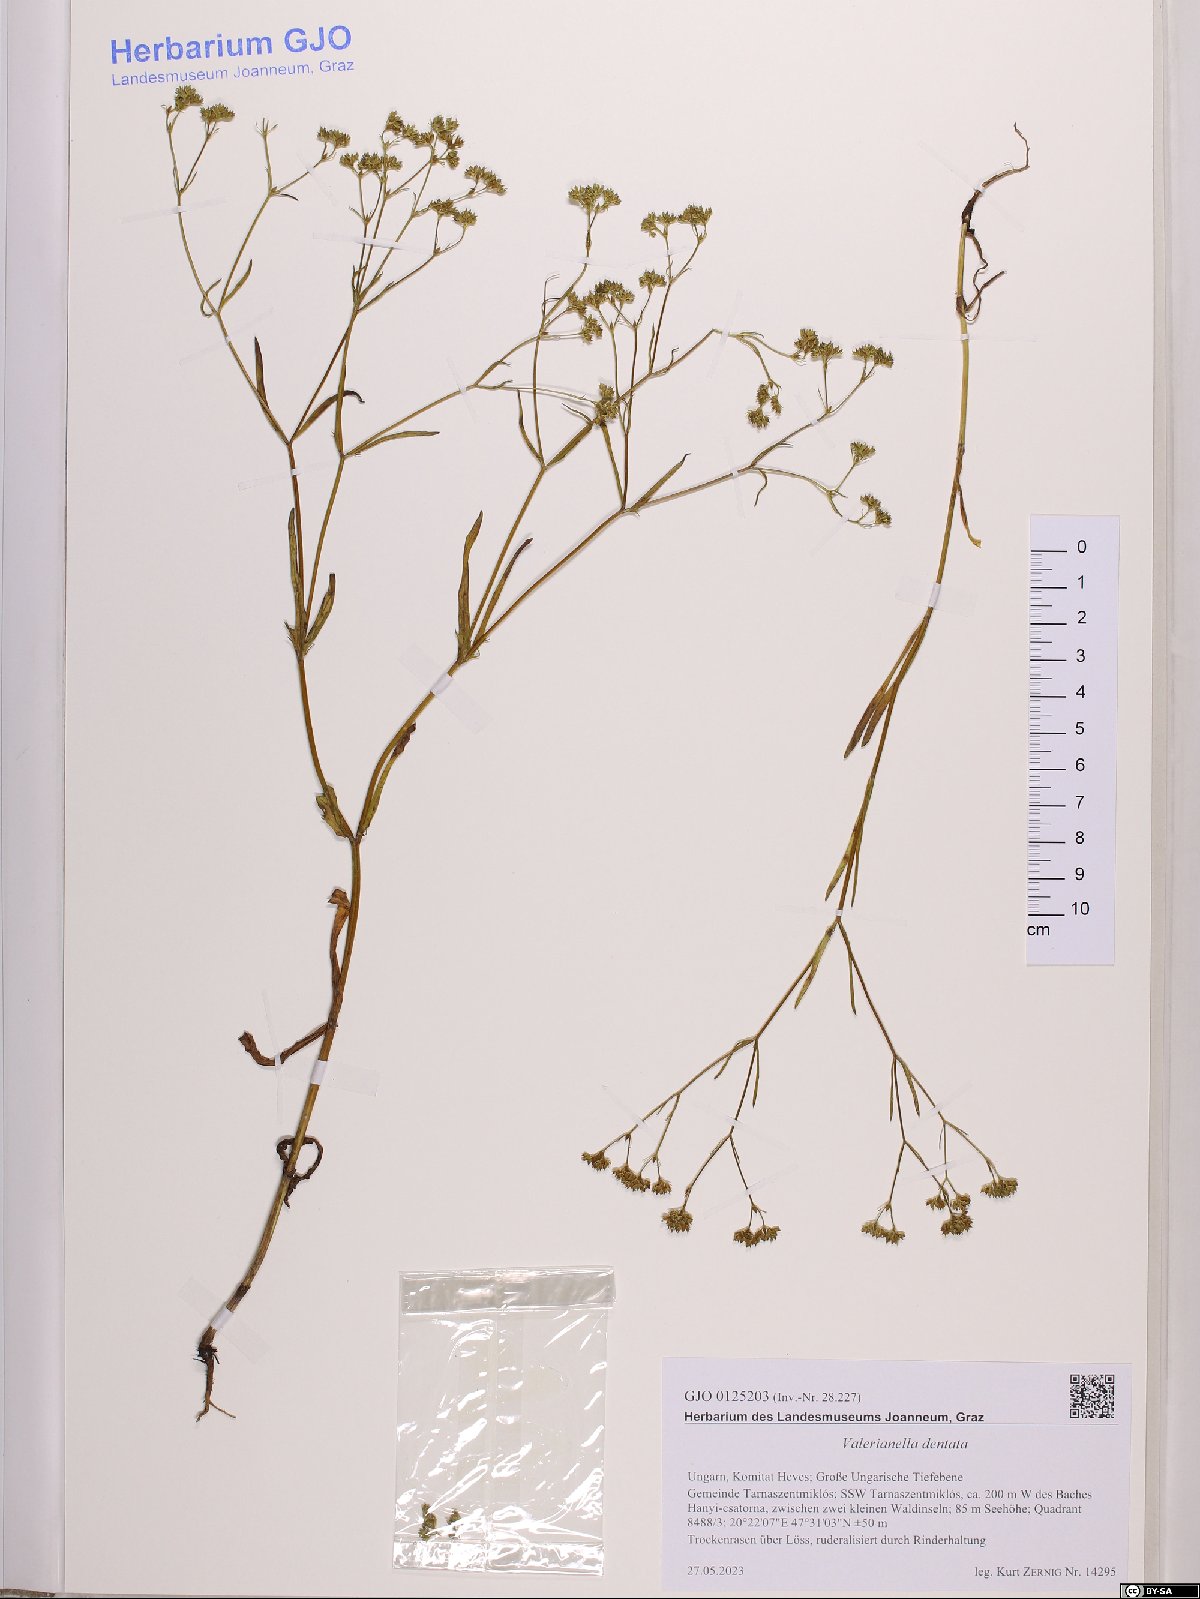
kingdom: Plantae
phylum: Tracheophyta
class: Magnoliopsida
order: Dipsacales
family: Caprifoliaceae
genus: Valerianella
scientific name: Valerianella dentata
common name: Narrow-fruited cornsalad
